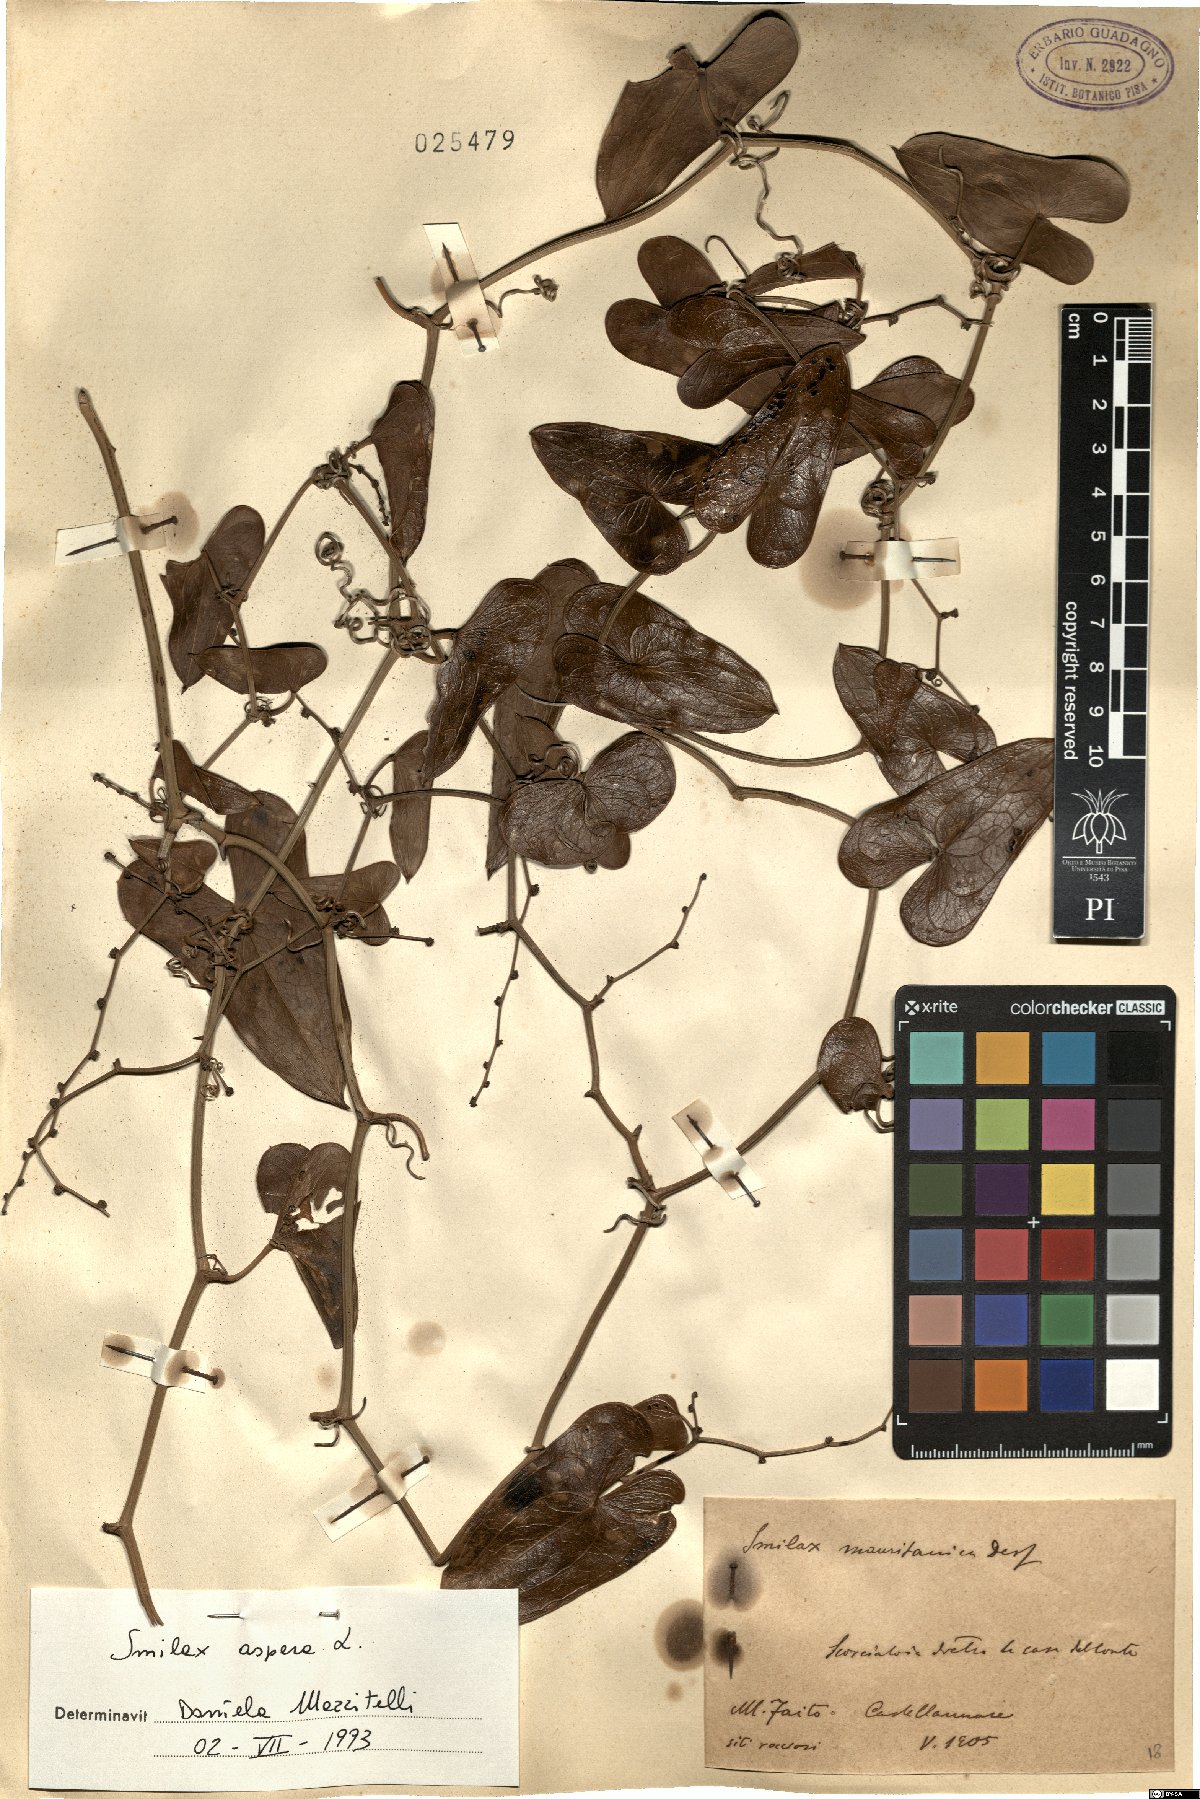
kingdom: Plantae
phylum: Tracheophyta
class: Liliopsida
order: Liliales
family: Smilacaceae
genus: Smilax
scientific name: Smilax aspera
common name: Common smilax
